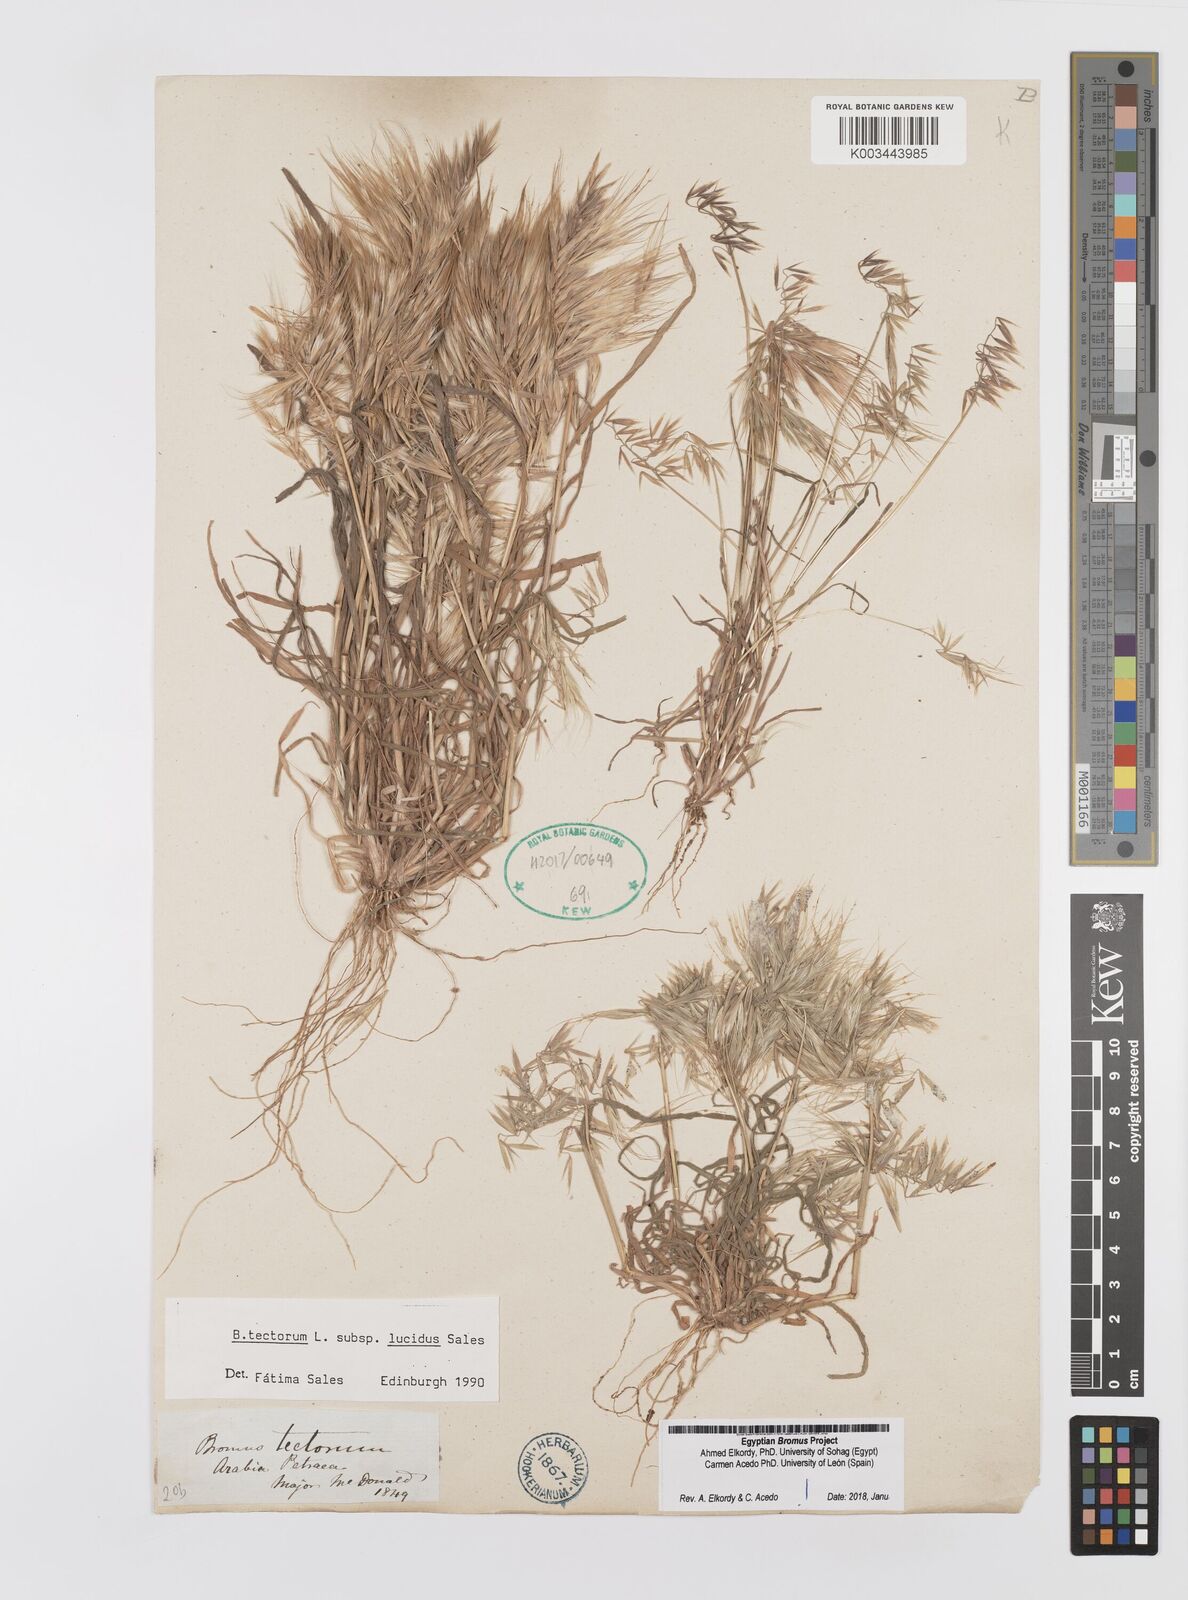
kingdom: Plantae
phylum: Tracheophyta
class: Liliopsida
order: Poales
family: Poaceae
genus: Bromus
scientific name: Bromus moeszii
